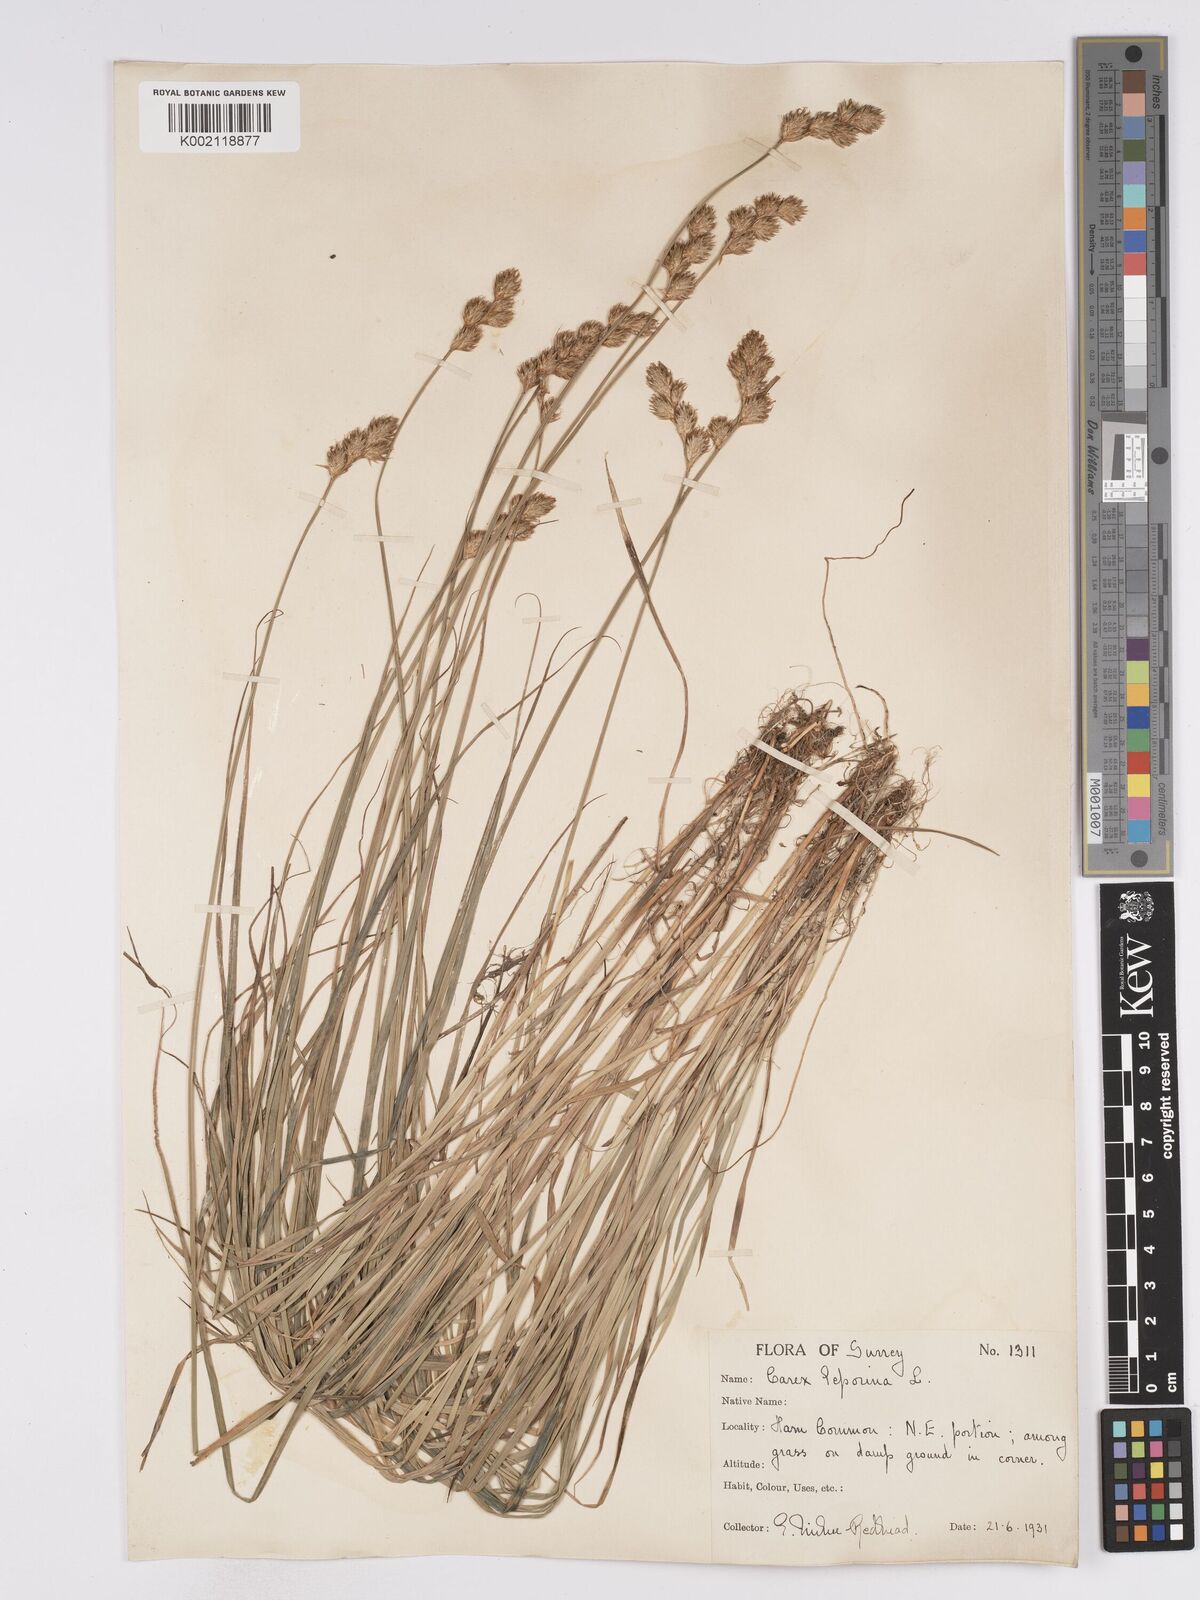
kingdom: Plantae
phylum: Tracheophyta
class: Liliopsida
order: Poales
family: Cyperaceae
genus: Carex
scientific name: Carex leporina
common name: Oval sedge
